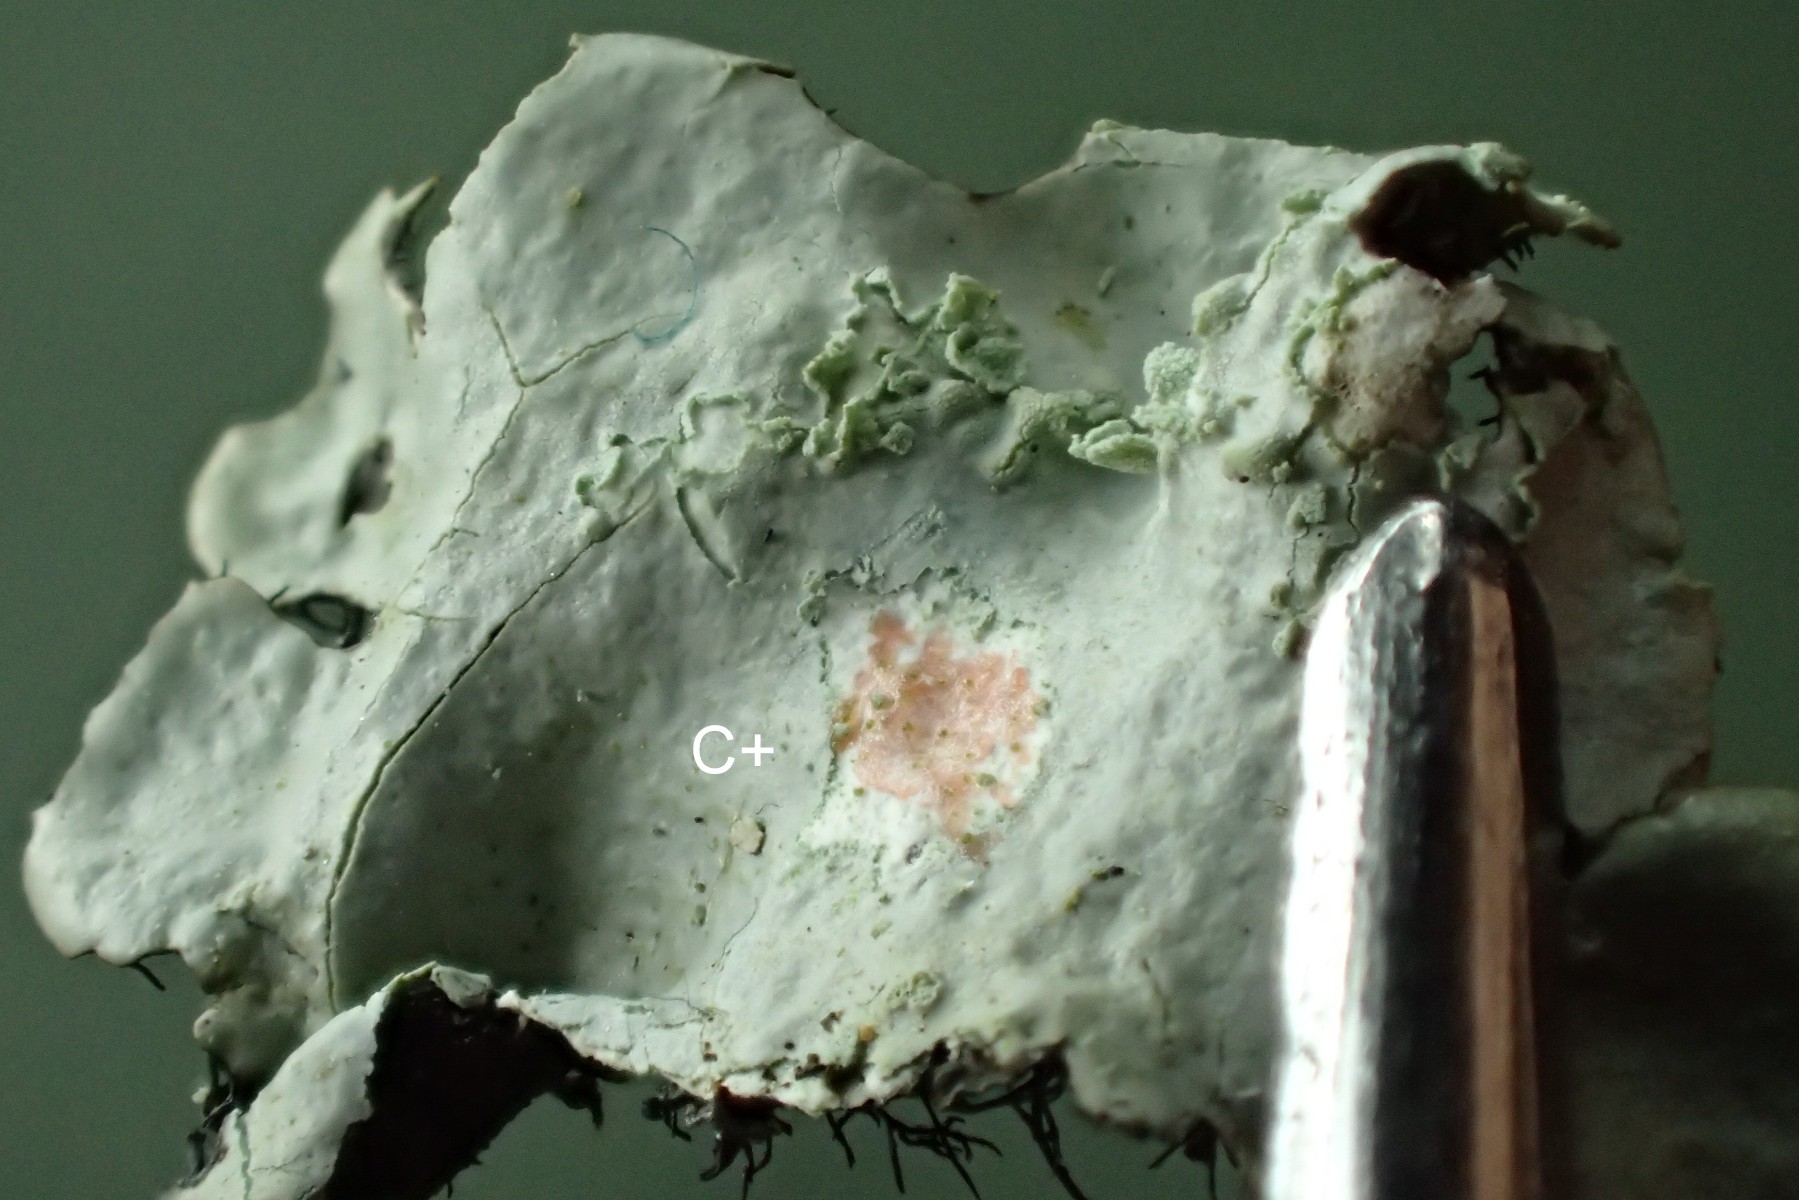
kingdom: Fungi
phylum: Ascomycota
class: Lecanoromycetes
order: Lecanorales
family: Parmeliaceae
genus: Hypotrachyna
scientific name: Hypotrachyna afrorevoluta
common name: kyst-skållav
